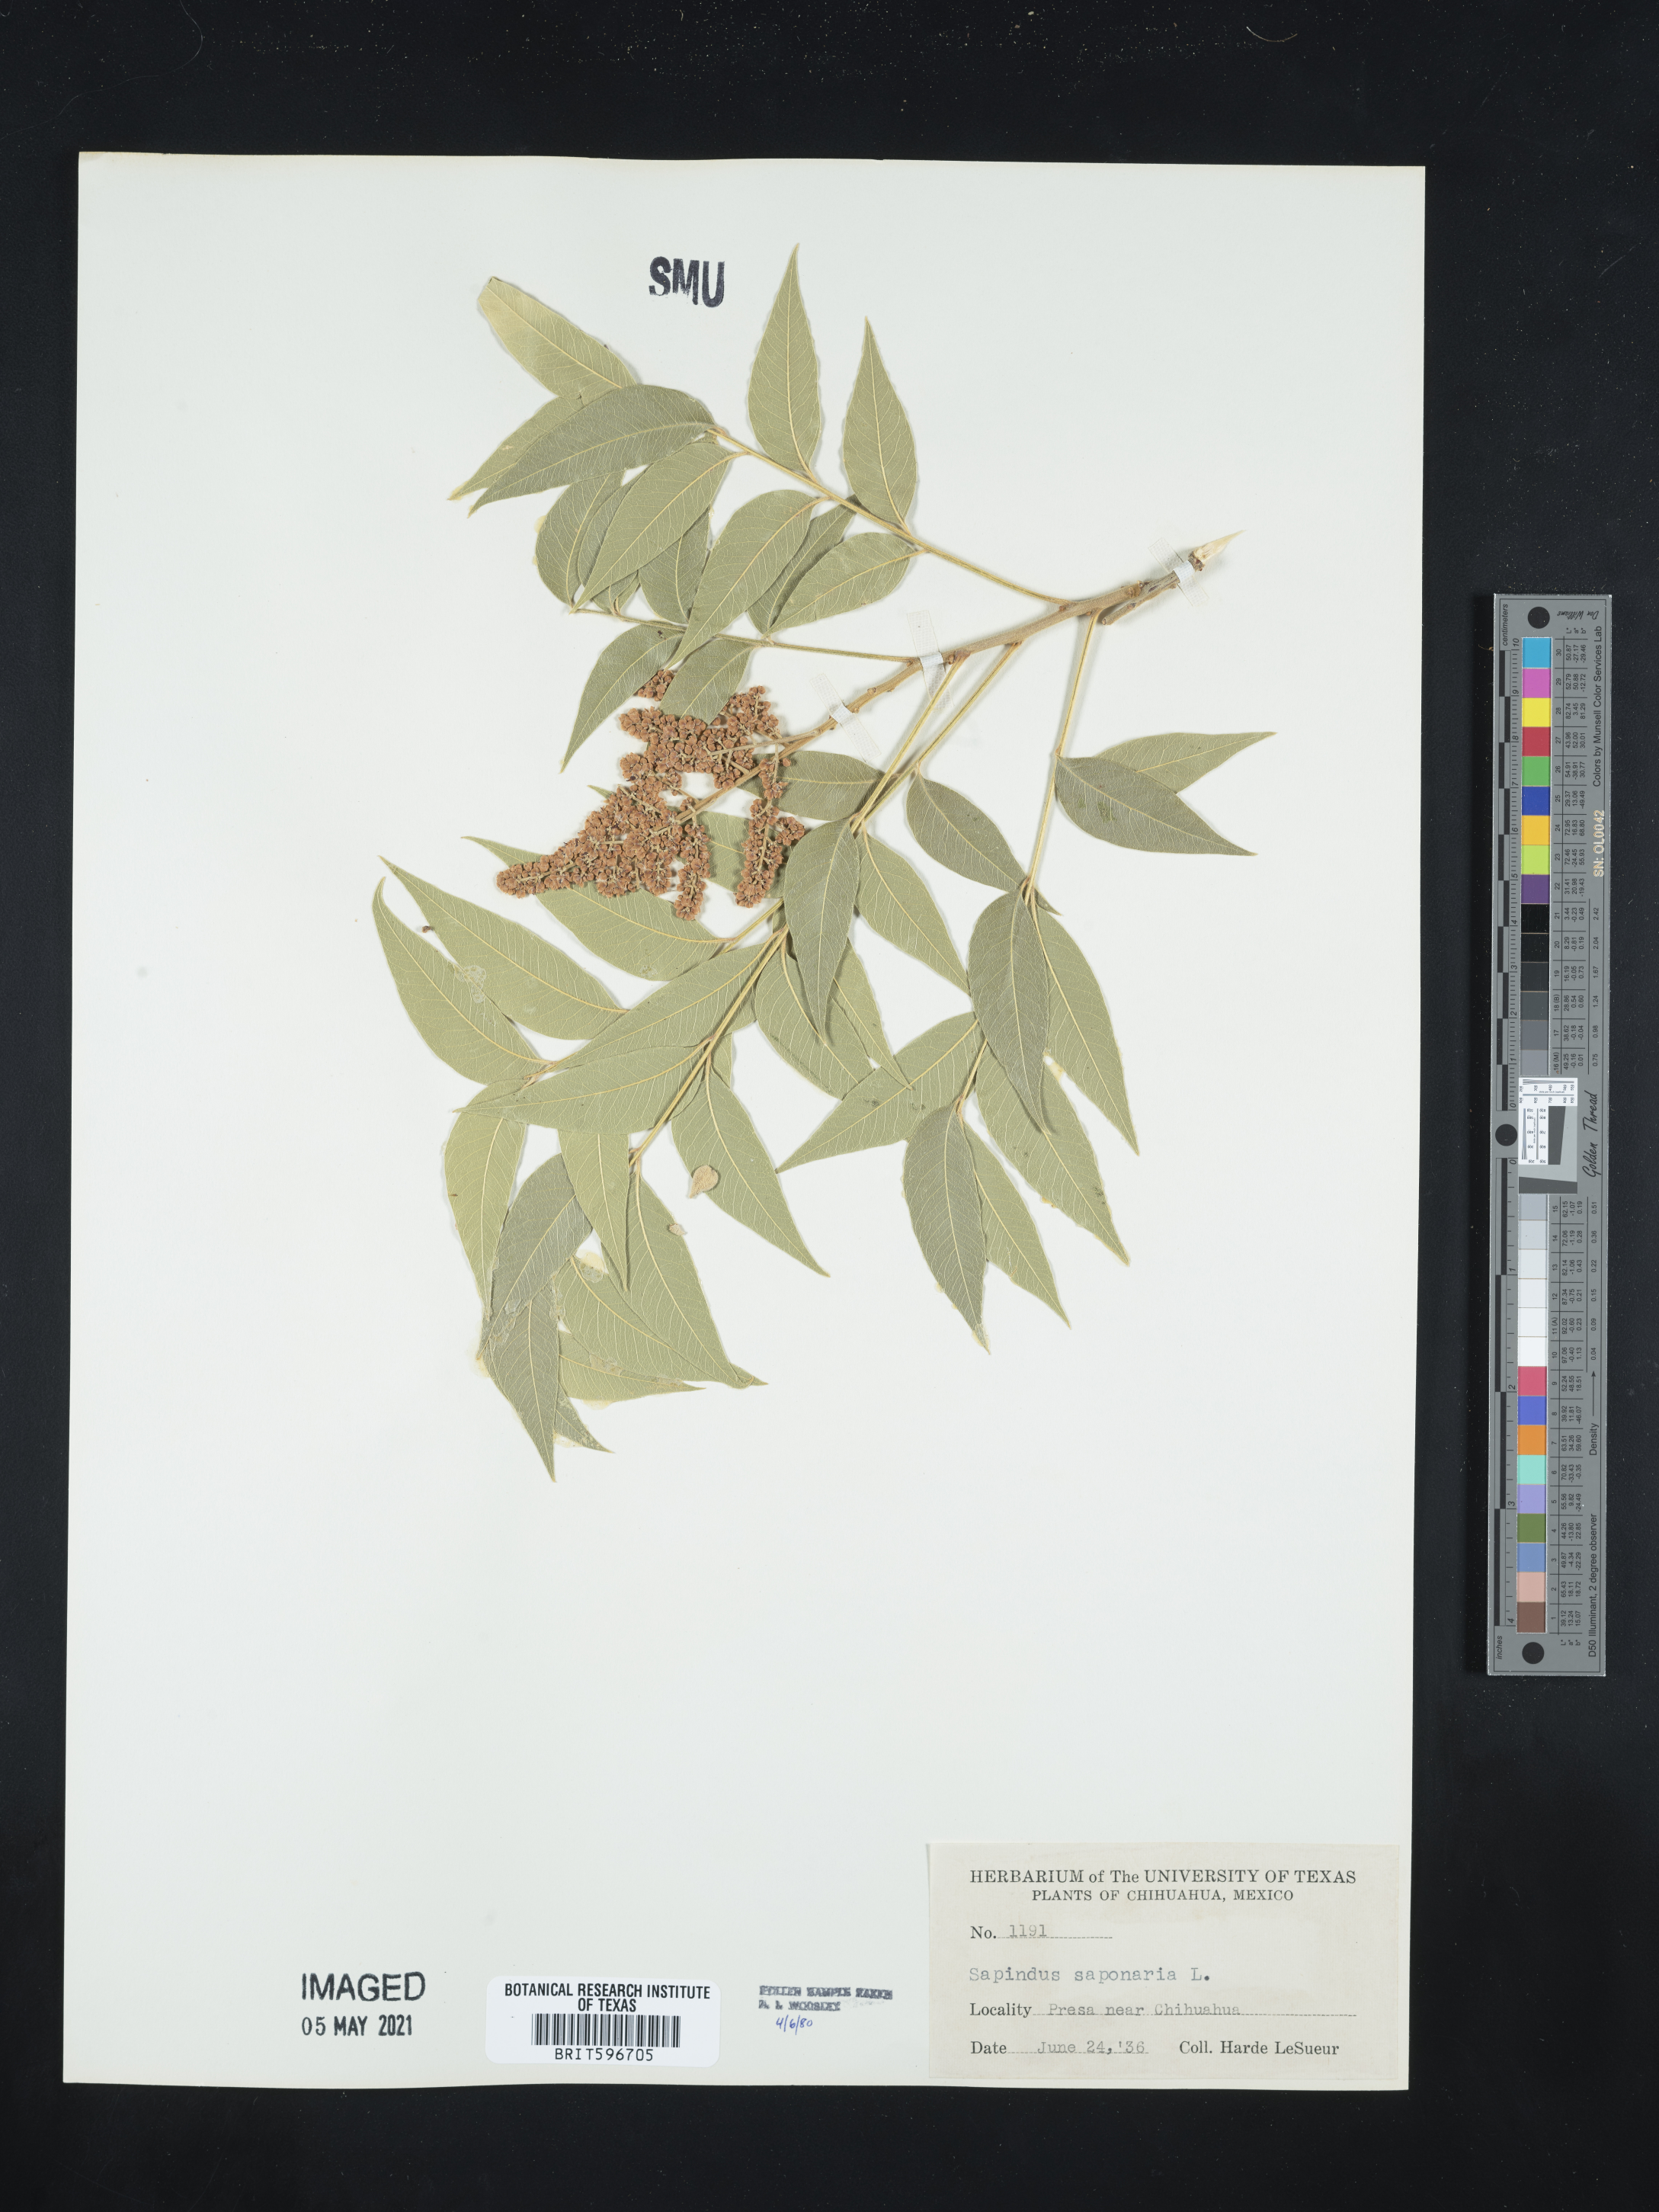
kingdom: Plantae
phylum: Tracheophyta
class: Magnoliopsida
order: Sapindales
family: Sapindaceae
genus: Sapindus
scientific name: Sapindus saponaria
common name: Wingleaf soapberry
